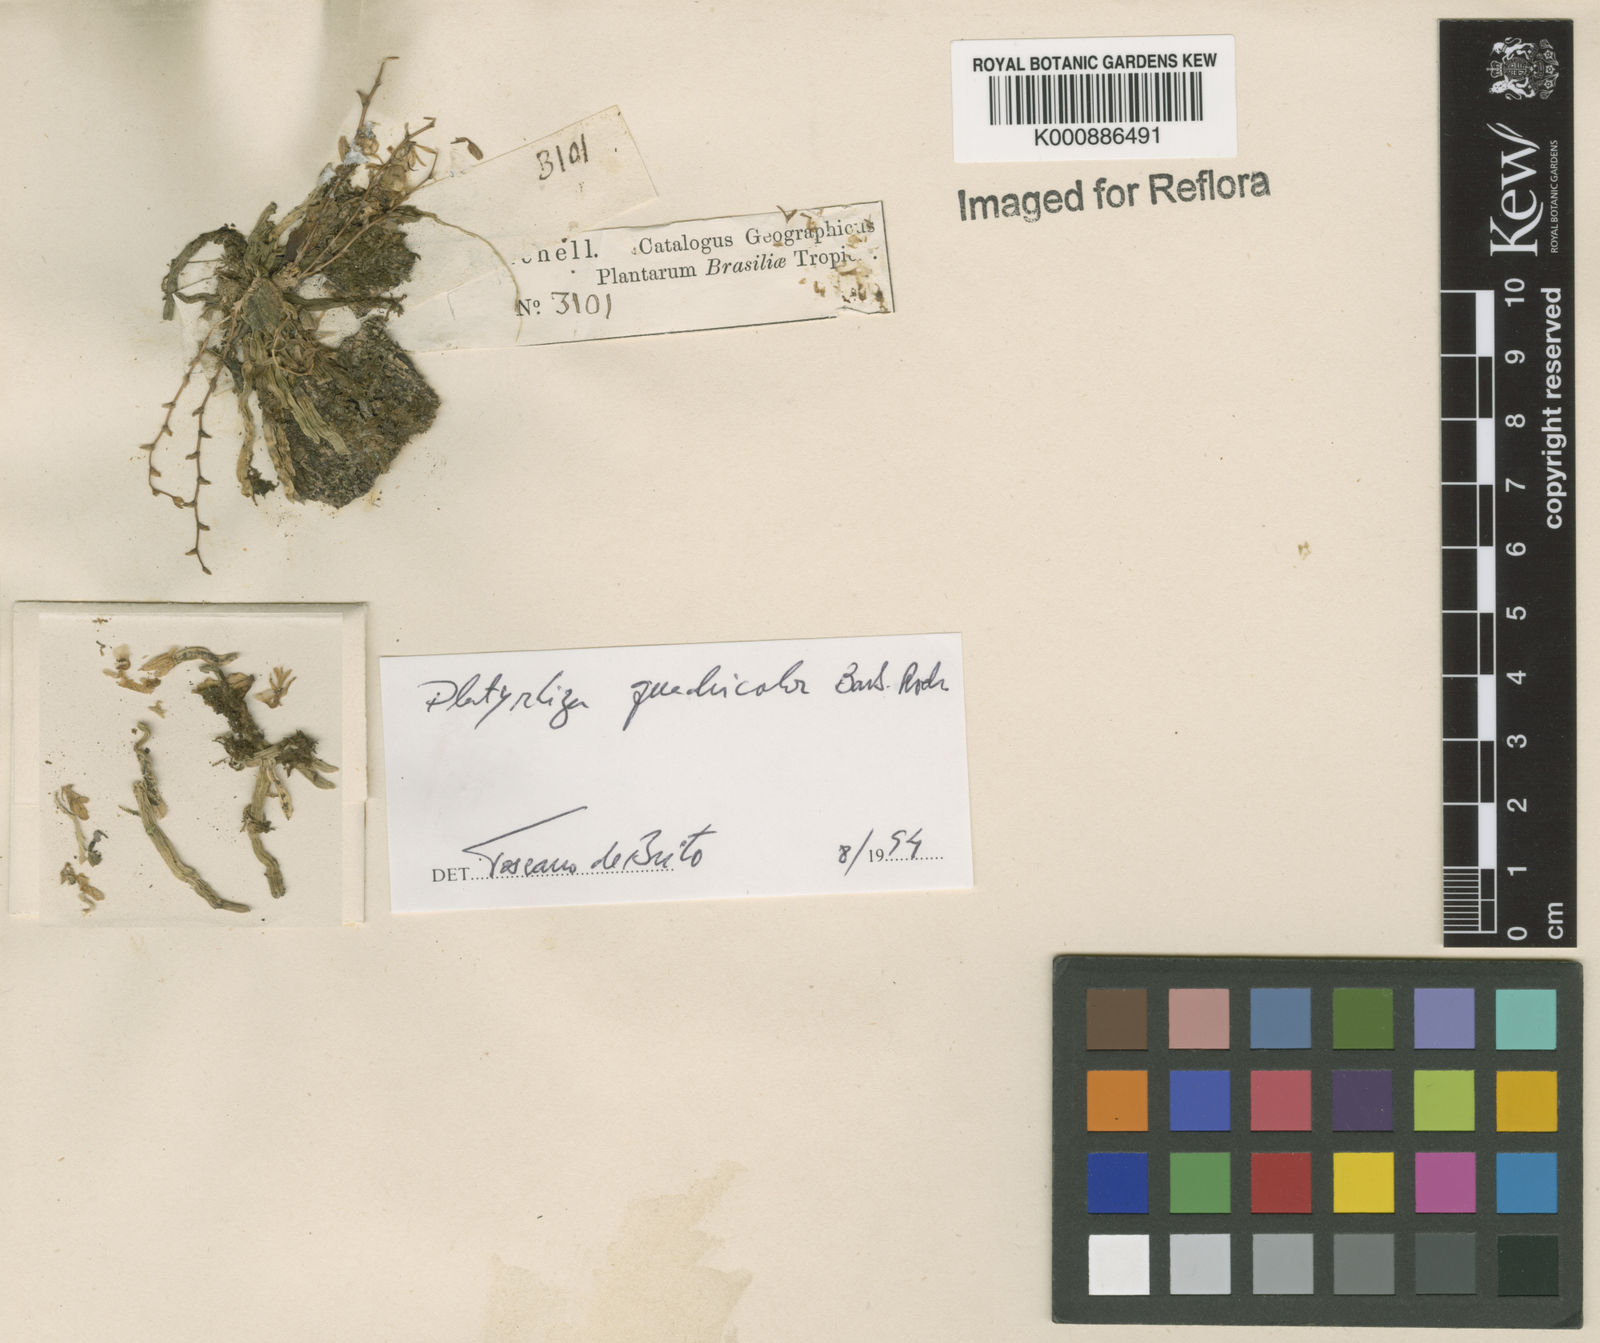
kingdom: Plantae
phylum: Tracheophyta
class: Liliopsida
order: Asparagales
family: Orchidaceae
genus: Platyrhiza
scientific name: Platyrhiza quadricolor
